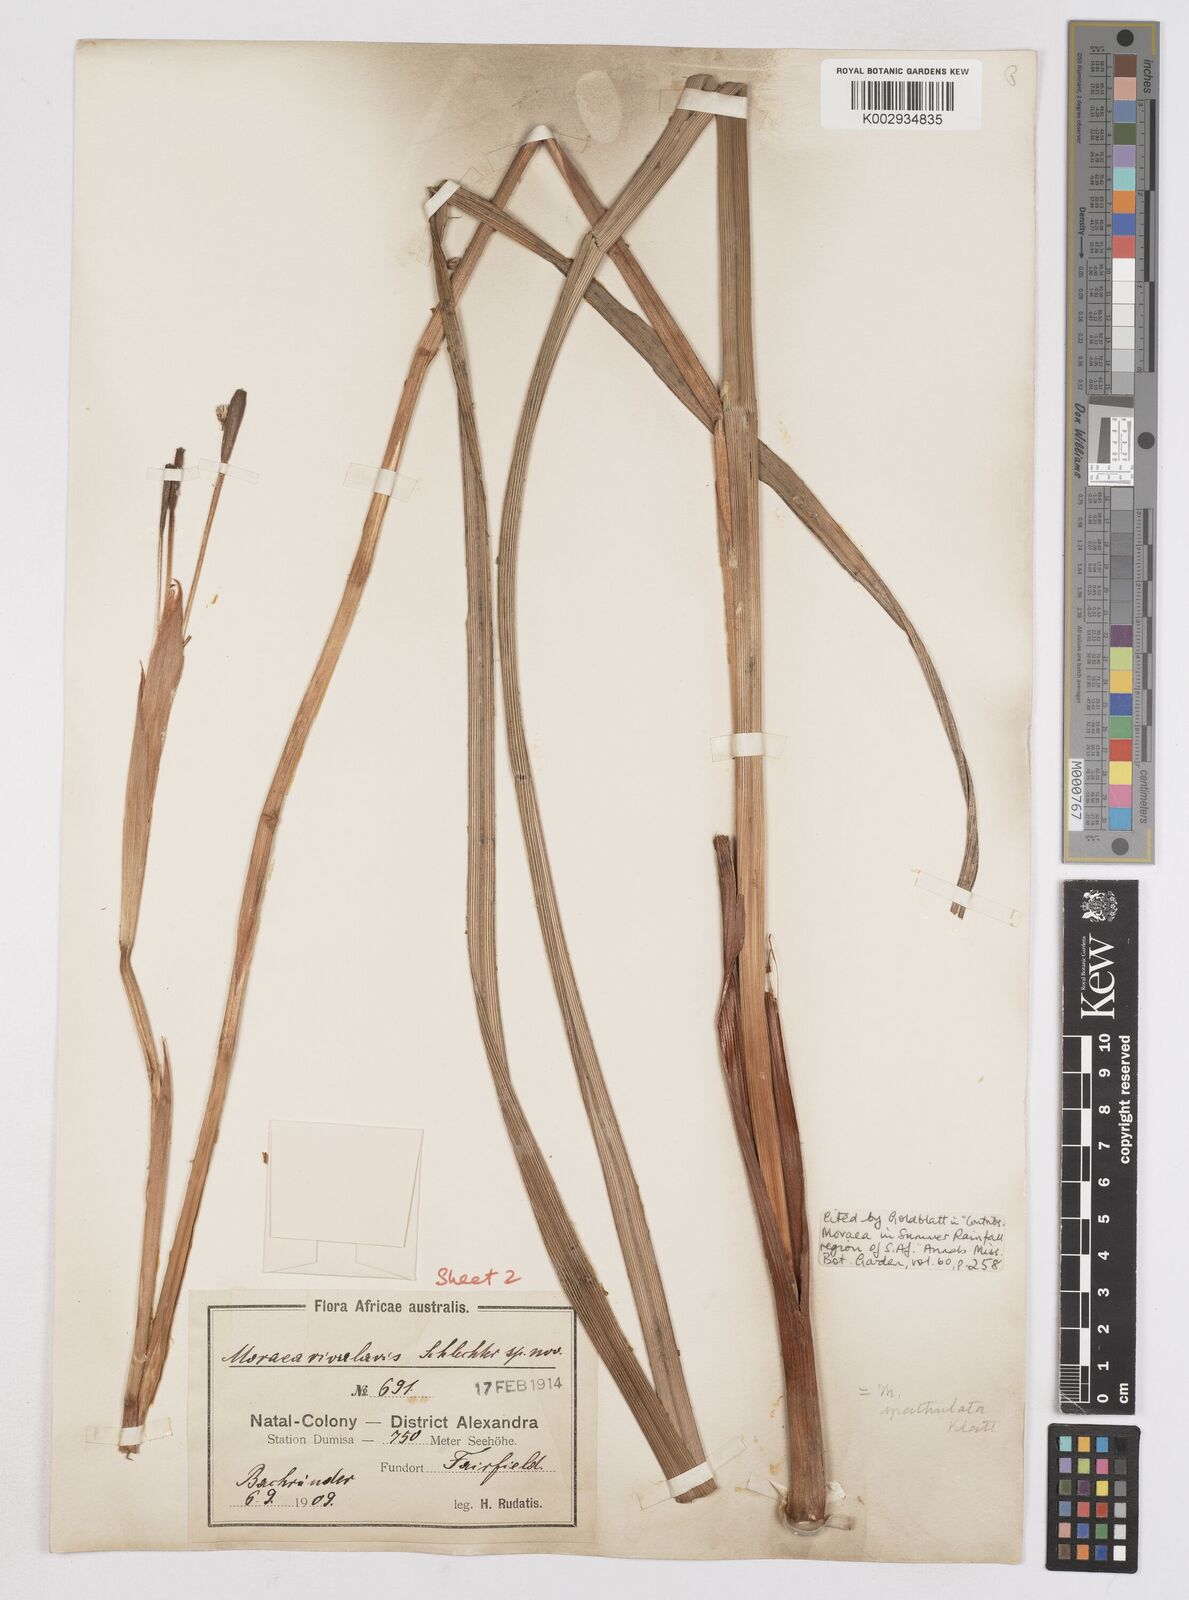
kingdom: Plantae
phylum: Tracheophyta
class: Liliopsida
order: Asparagales
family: Iridaceae
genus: Moraea
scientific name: Moraea huttonii
